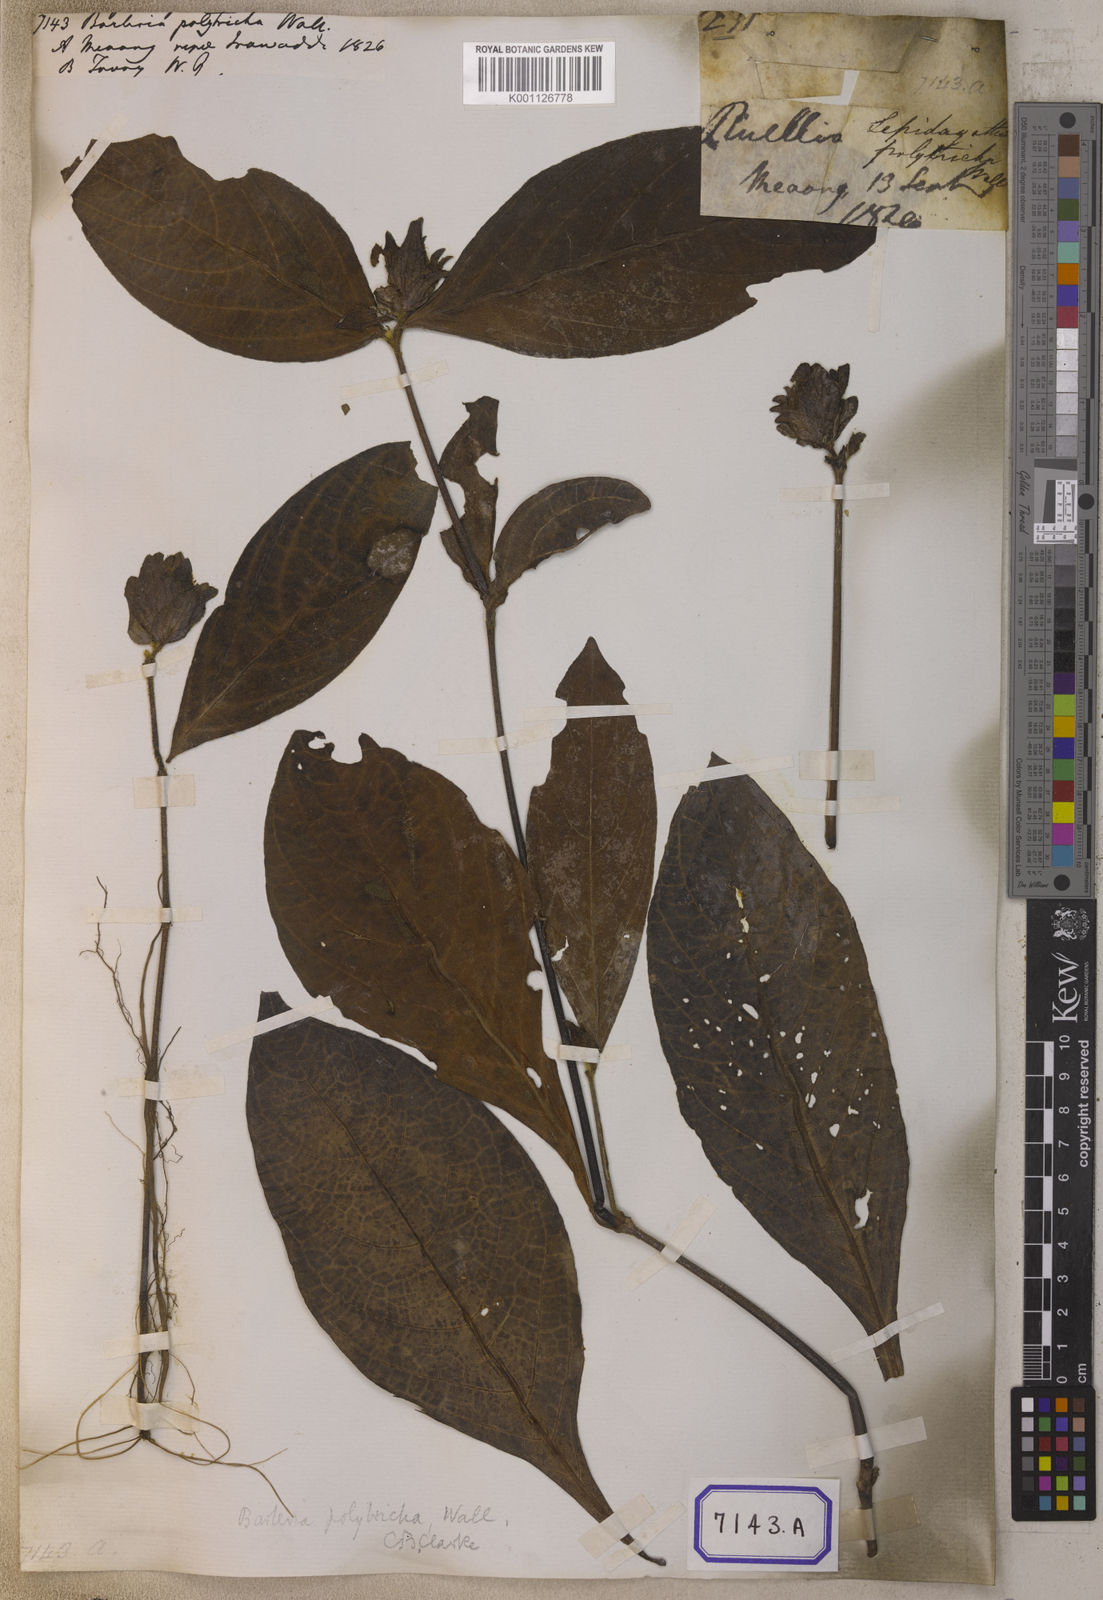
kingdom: Plantae
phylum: Tracheophyta
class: Magnoliopsida
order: Lamiales
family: Acanthaceae
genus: Barleria
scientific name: Barleria strigosa
